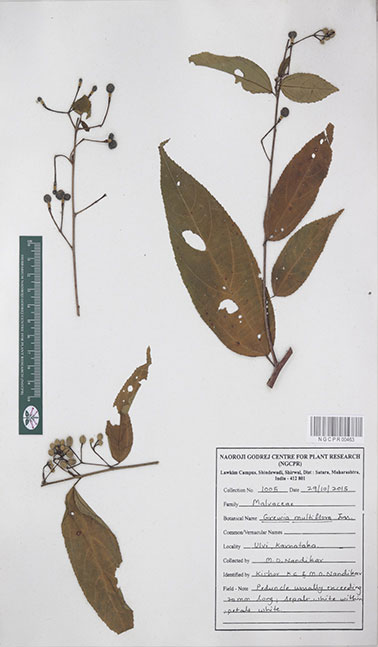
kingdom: Plantae
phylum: Tracheophyta
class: Magnoliopsida
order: Malvales
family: Malvaceae
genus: Grewia
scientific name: Grewia multiflora
